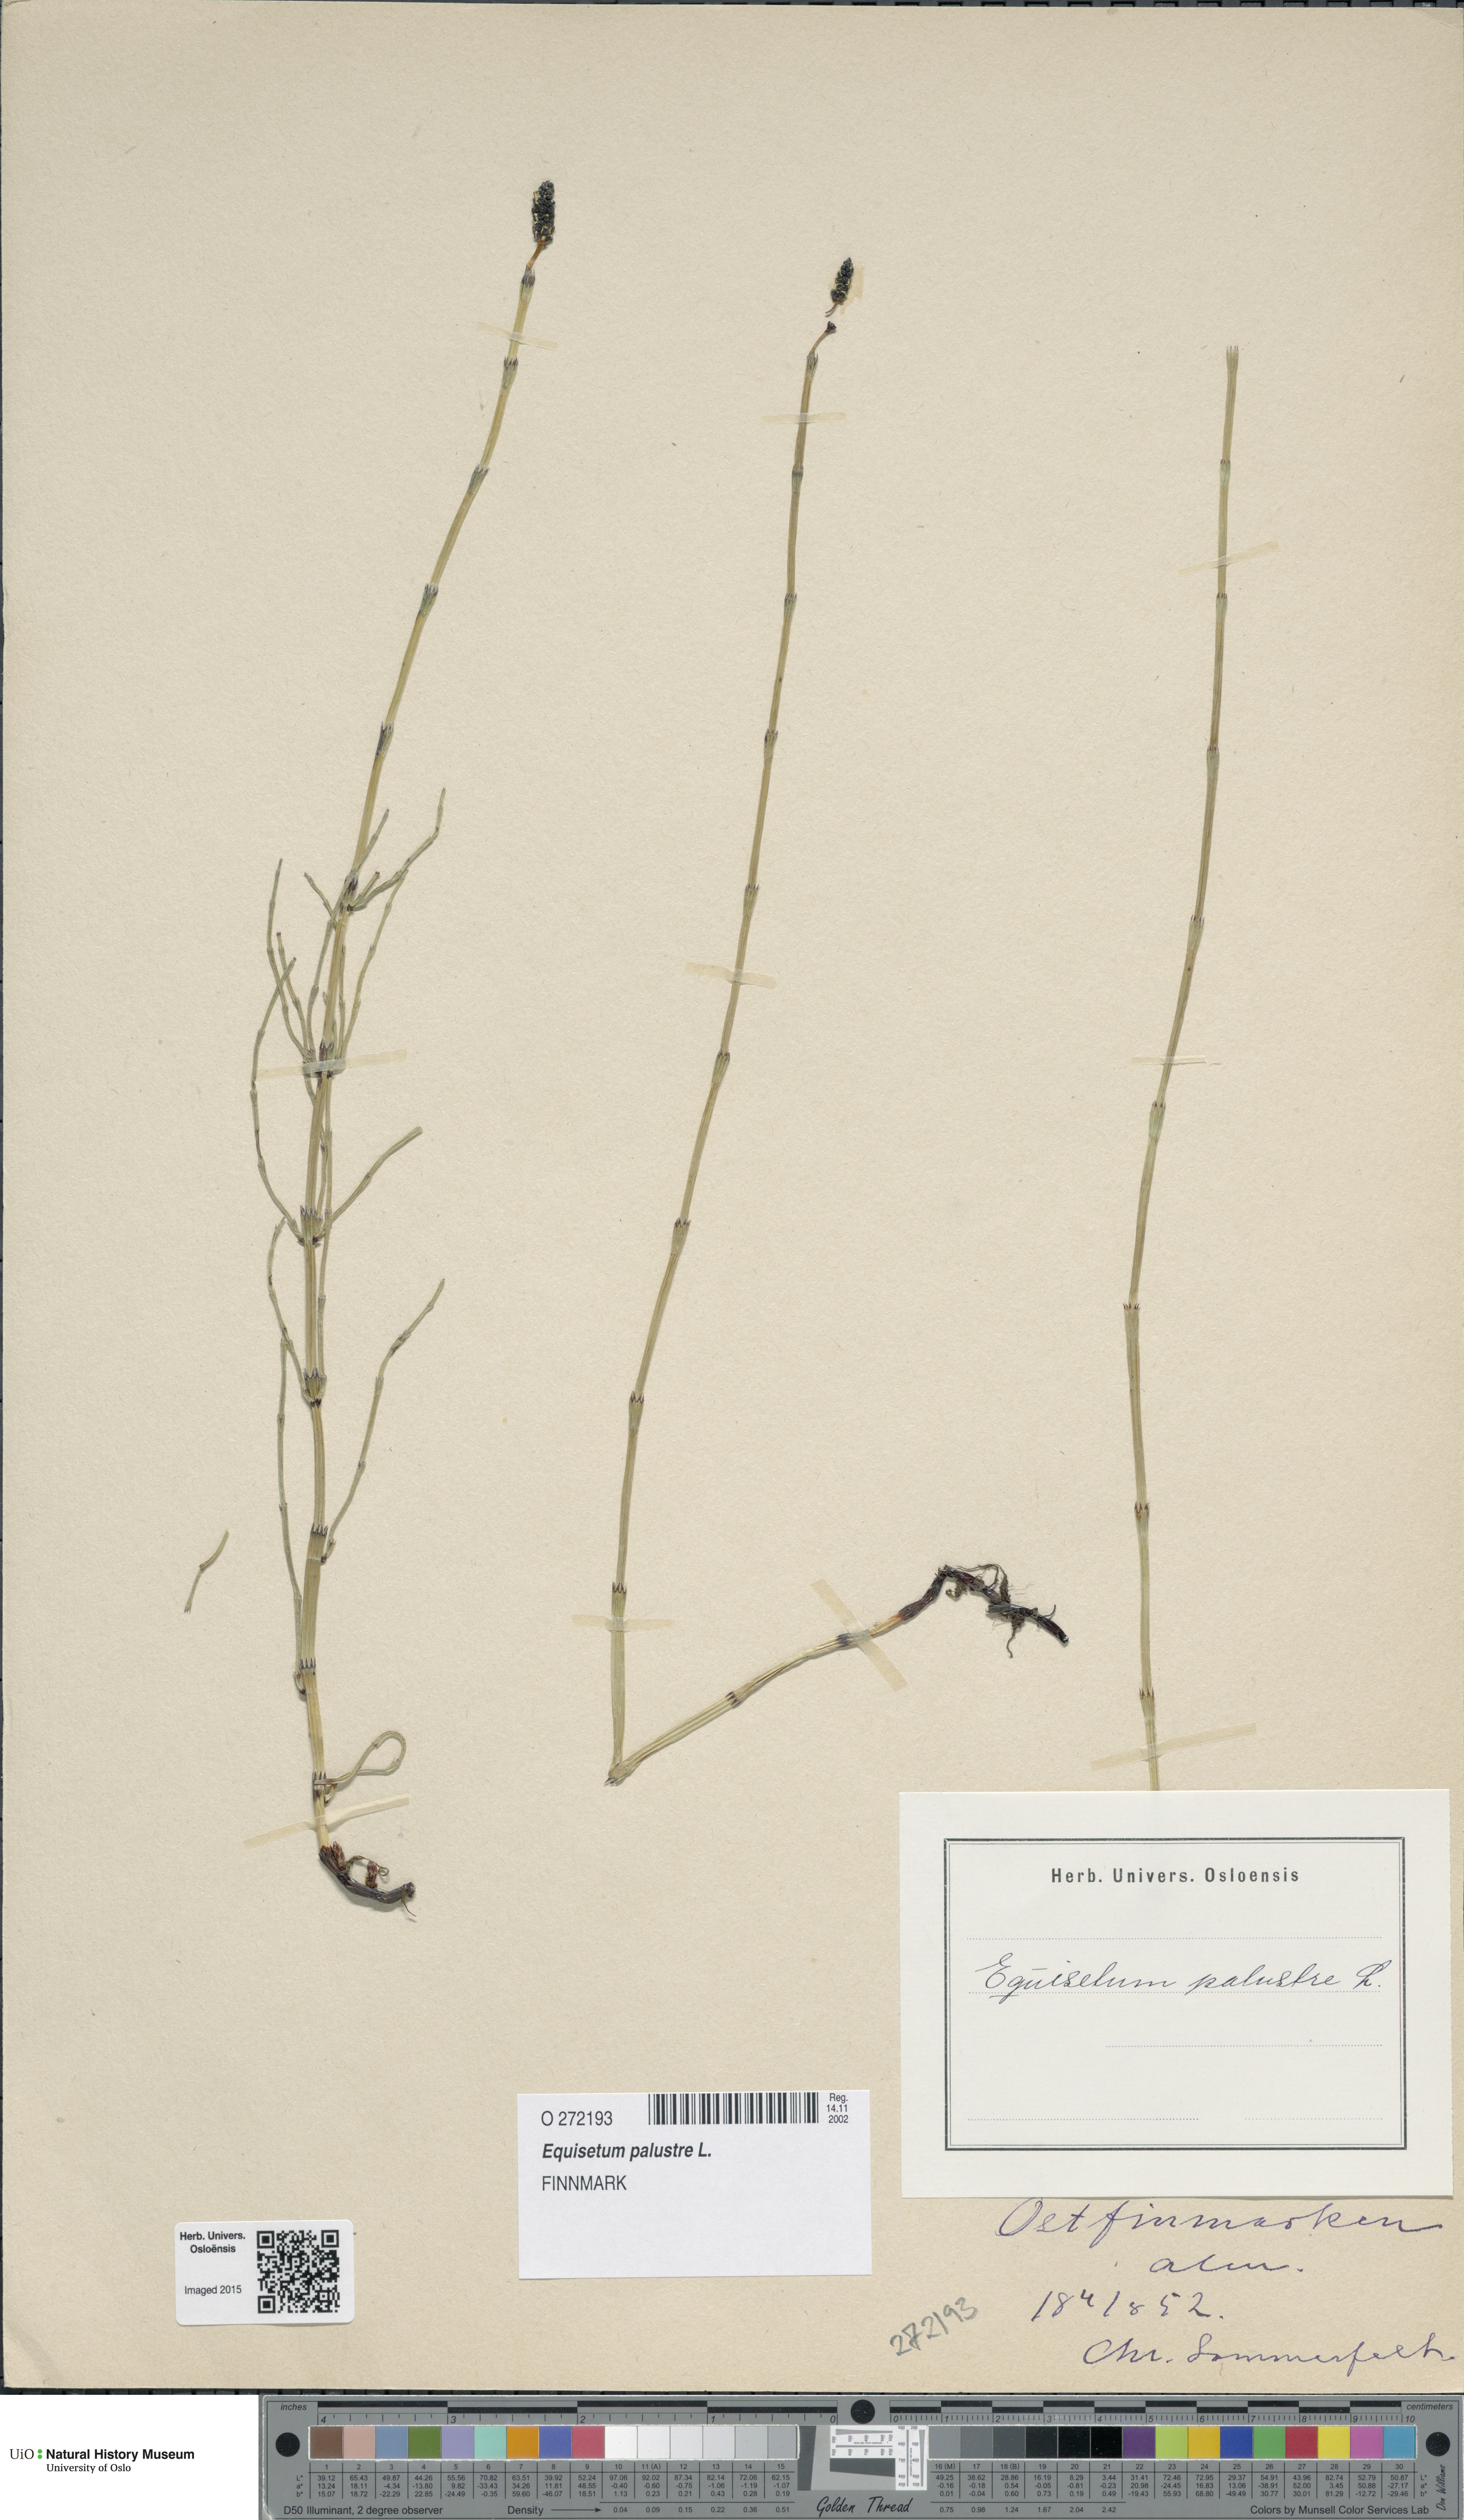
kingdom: Plantae
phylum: Tracheophyta
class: Polypodiopsida
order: Equisetales
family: Equisetaceae
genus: Equisetum
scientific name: Equisetum palustre
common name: Marsh horsetail
